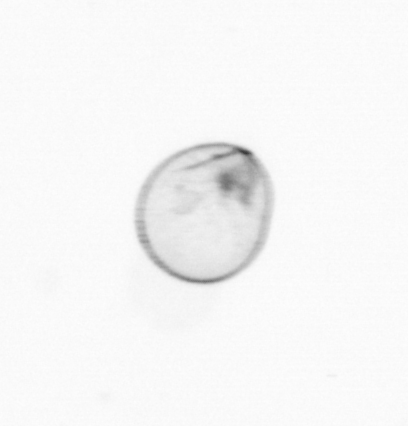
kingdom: Chromista
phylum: Myzozoa
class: Dinophyceae
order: Noctilucales
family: Noctilucaceae
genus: Noctiluca
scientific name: Noctiluca scintillans
